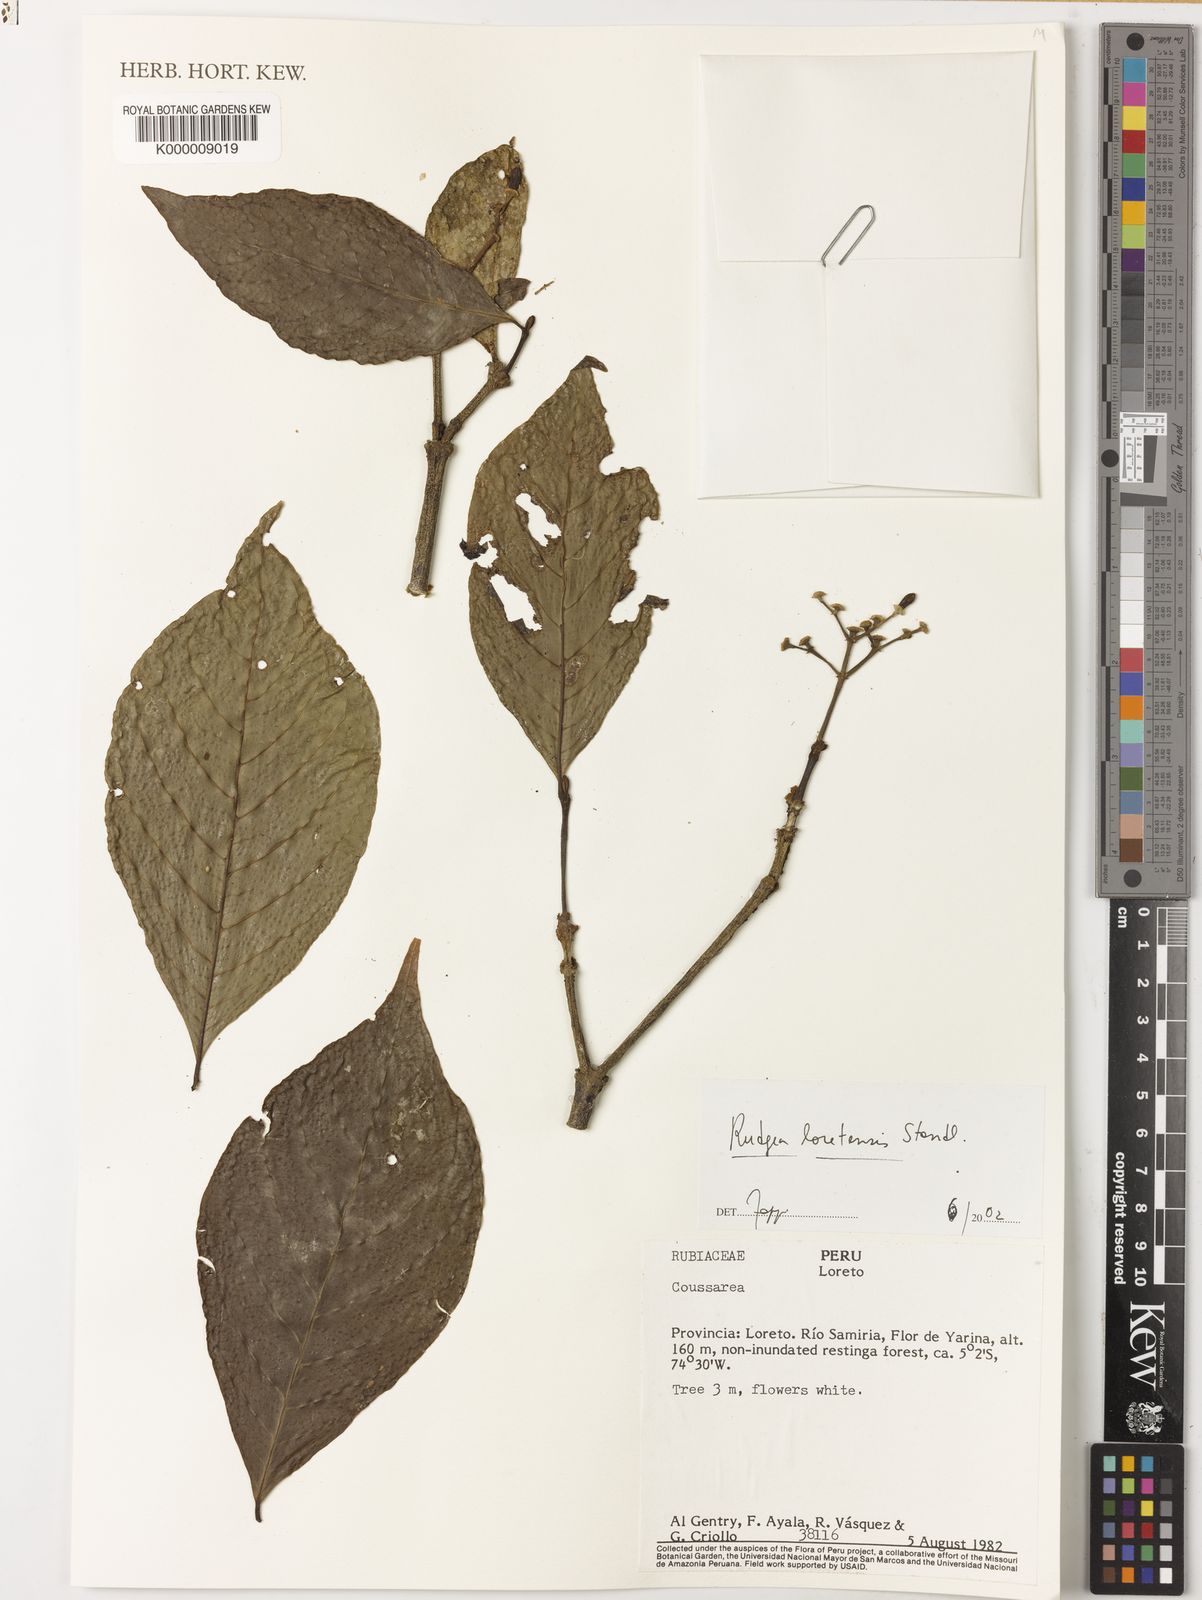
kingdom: Plantae
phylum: Tracheophyta
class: Magnoliopsida
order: Gentianales
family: Rubiaceae
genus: Rudgea
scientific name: Rudgea loretensis
